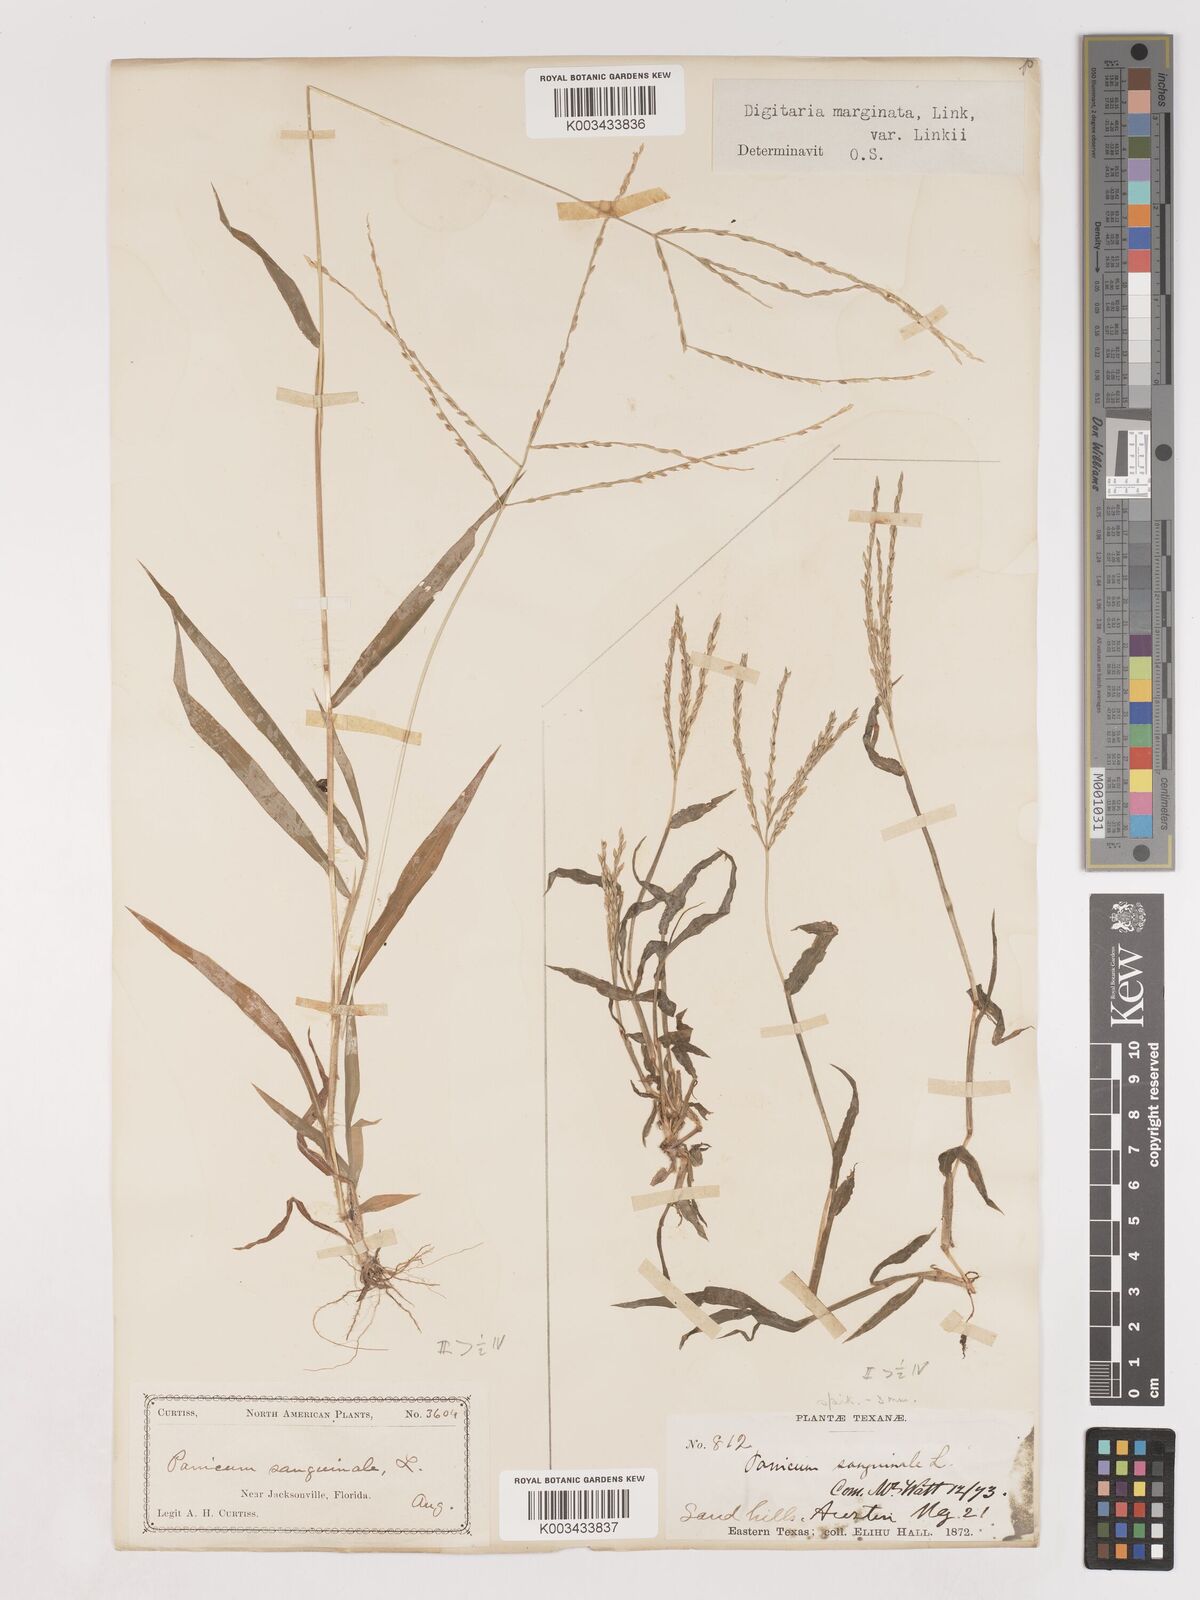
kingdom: Plantae
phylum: Tracheophyta
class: Liliopsida
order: Poales
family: Poaceae
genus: Digitaria
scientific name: Digitaria ciliaris
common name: Tropical finger-grass
